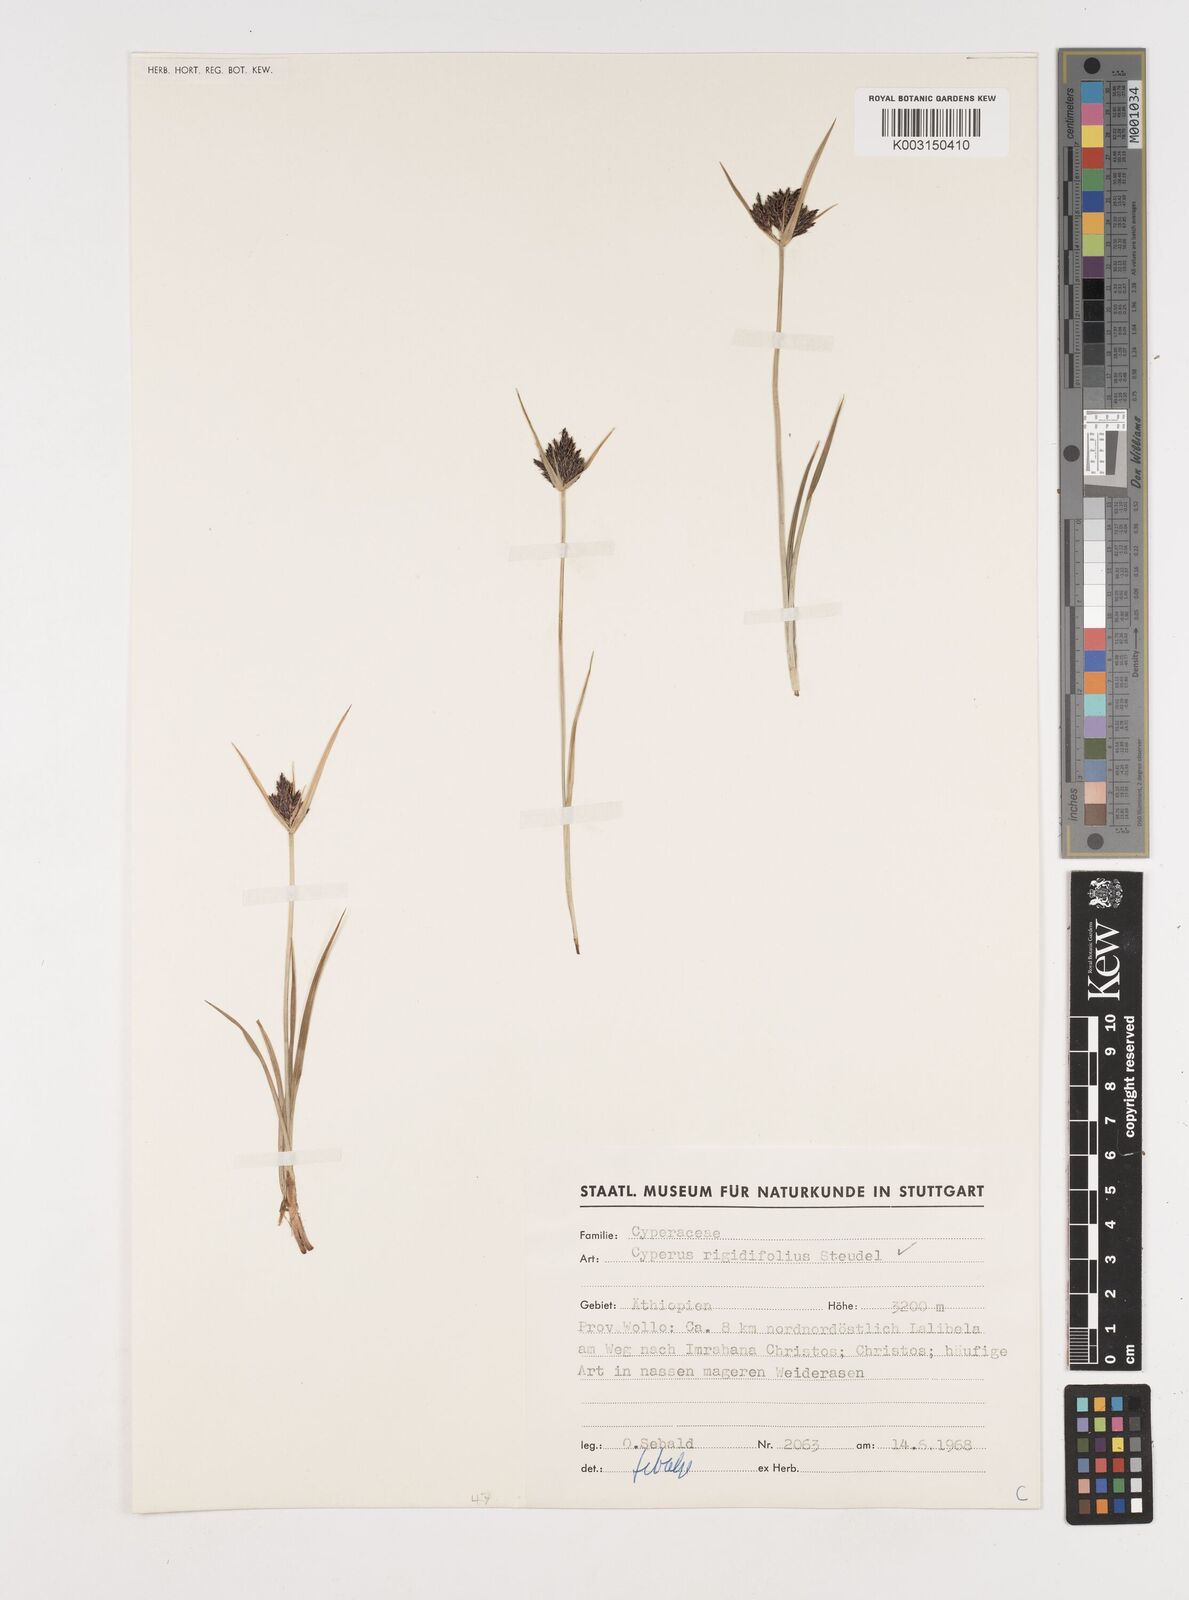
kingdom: Plantae
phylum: Tracheophyta
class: Liliopsida
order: Poales
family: Cyperaceae
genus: Cyperus
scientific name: Cyperus rigidifolius
